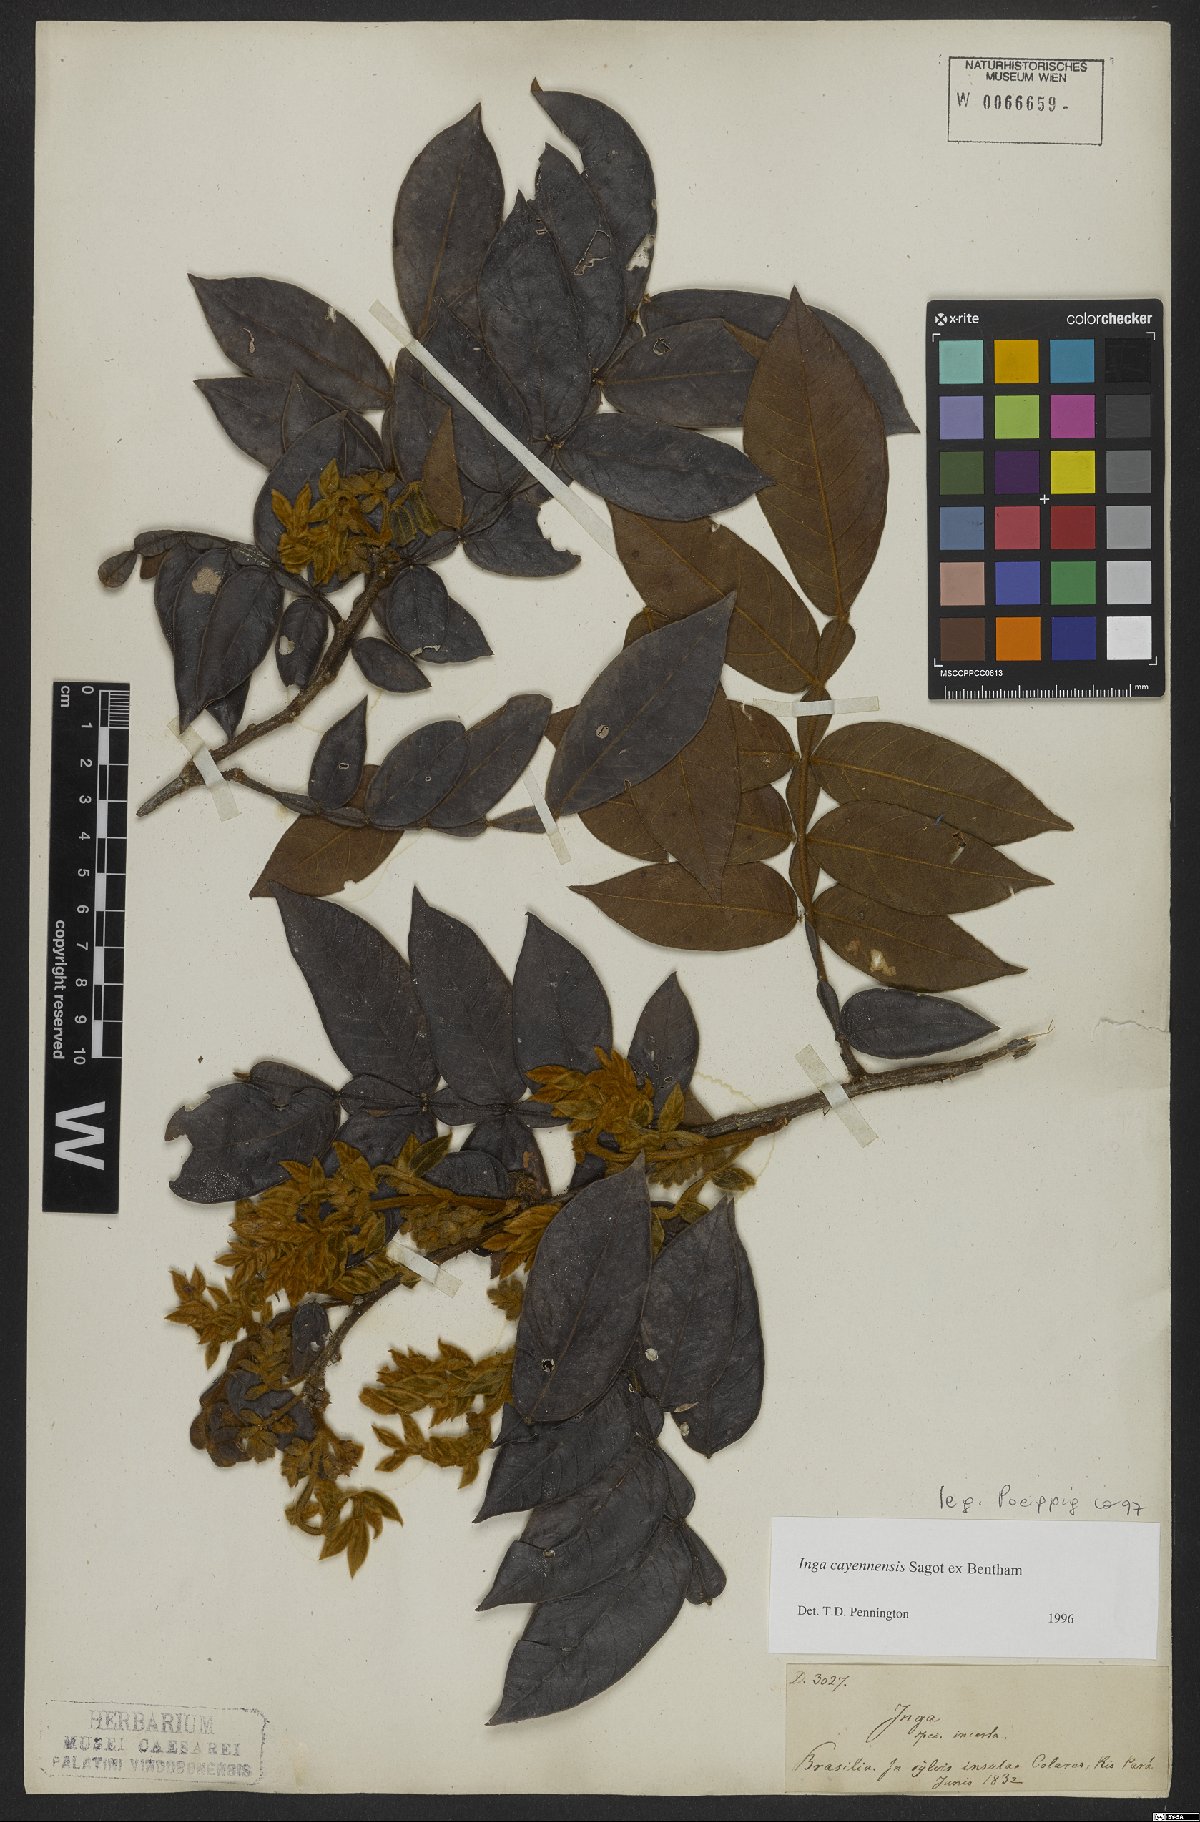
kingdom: Plantae
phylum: Tracheophyta
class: Magnoliopsida
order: Fabales
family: Fabaceae
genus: Inga
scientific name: Inga cayennensis
